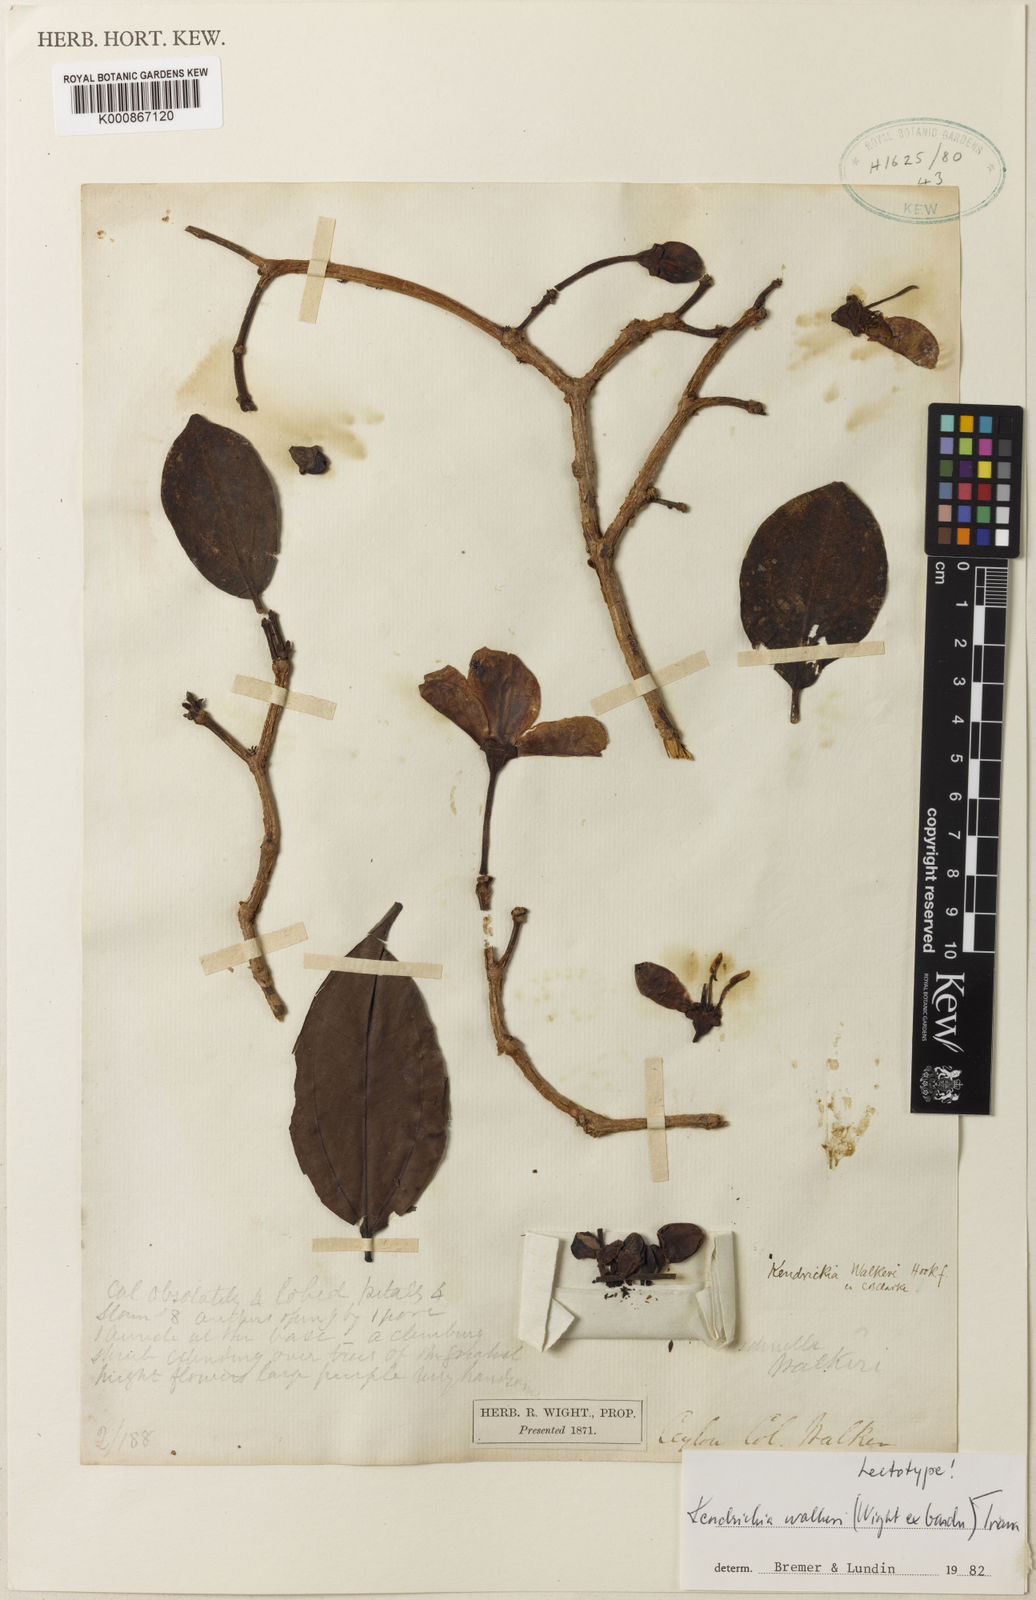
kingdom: Plantae
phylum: Tracheophyta
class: Magnoliopsida
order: Myrtales
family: Melastomataceae
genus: Kendrickia
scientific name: Kendrickia walkeri
